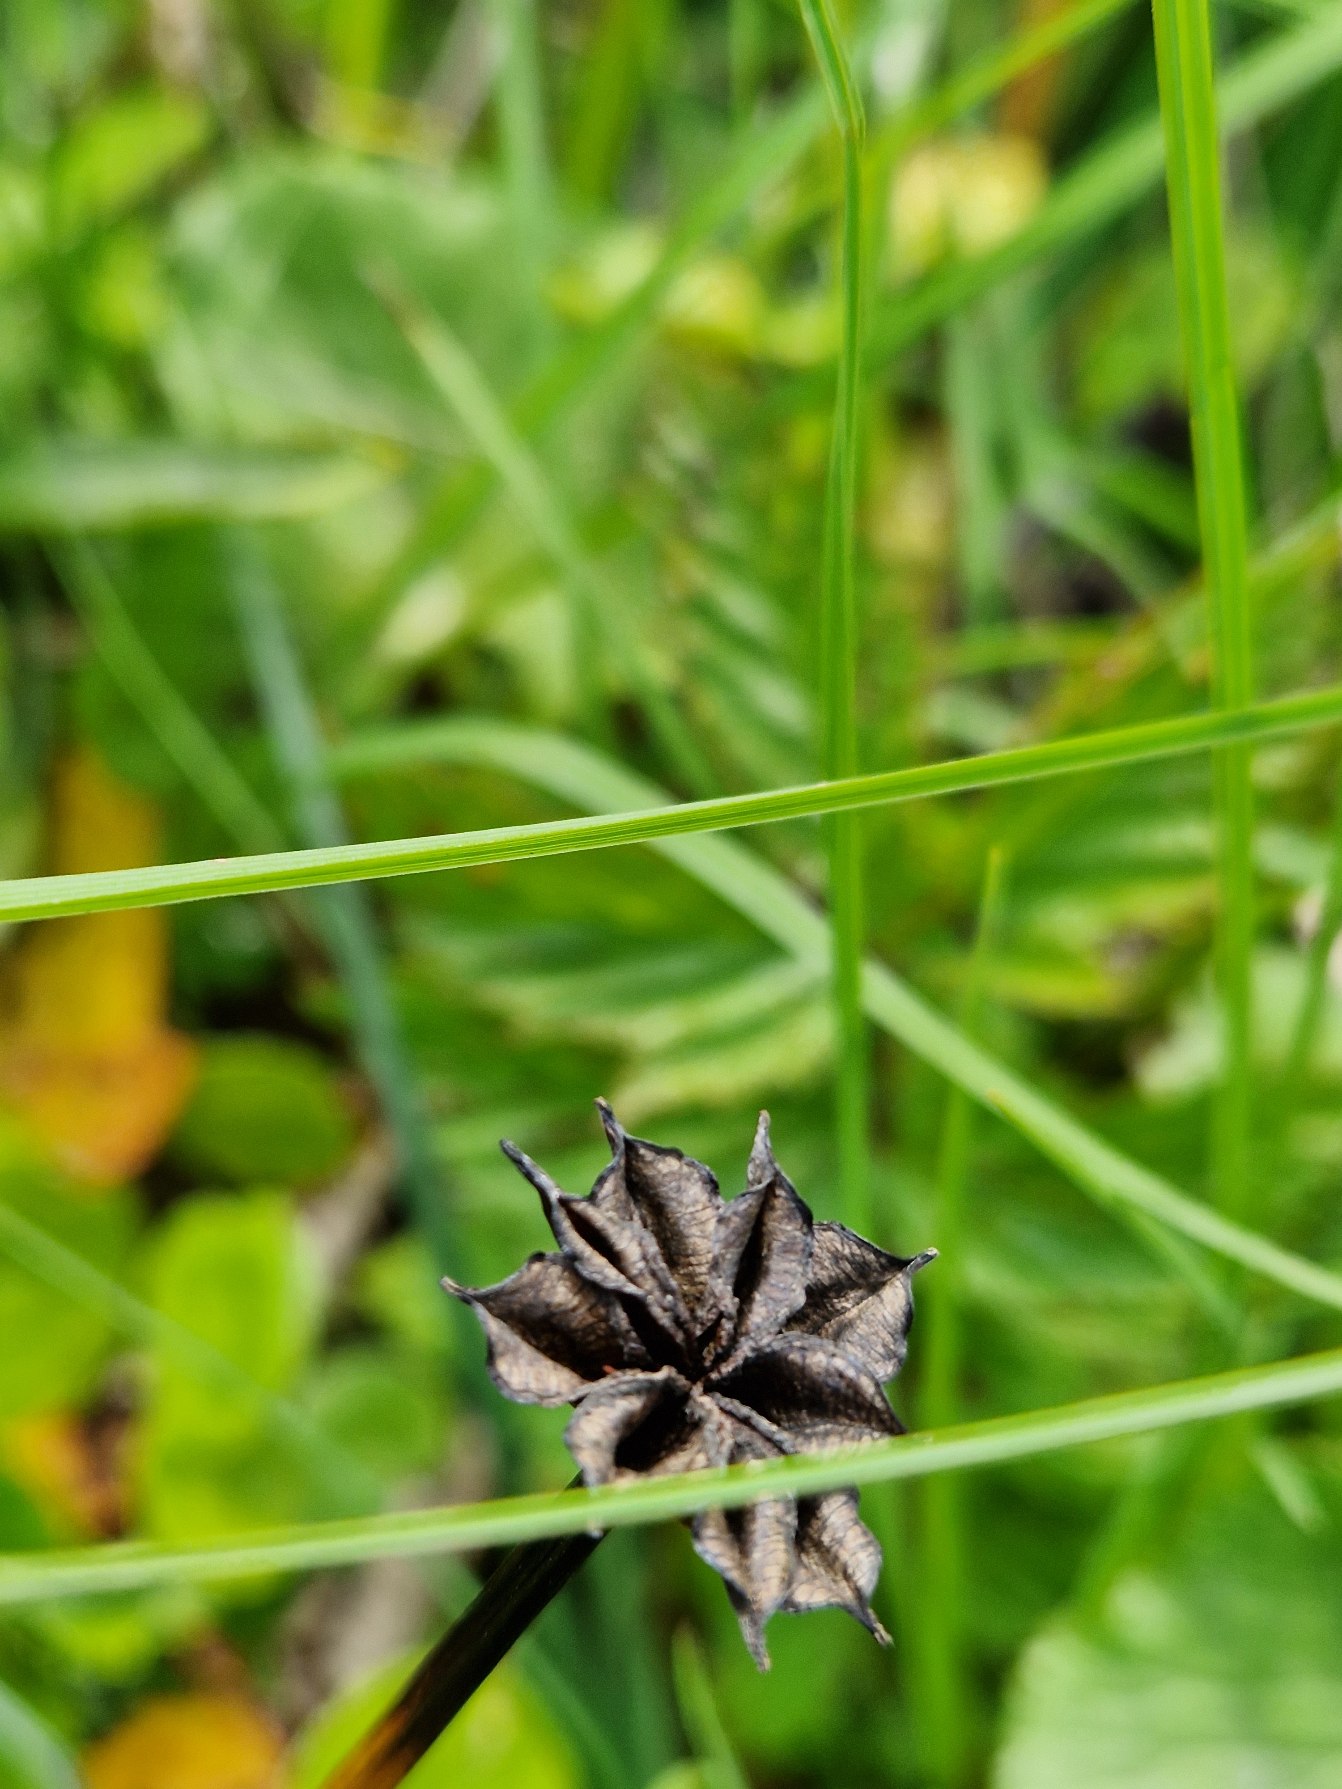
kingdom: Plantae
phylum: Tracheophyta
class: Magnoliopsida
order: Ranunculales
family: Ranunculaceae
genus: Caltha
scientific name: Caltha palustris
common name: Eng-kabbeleje
